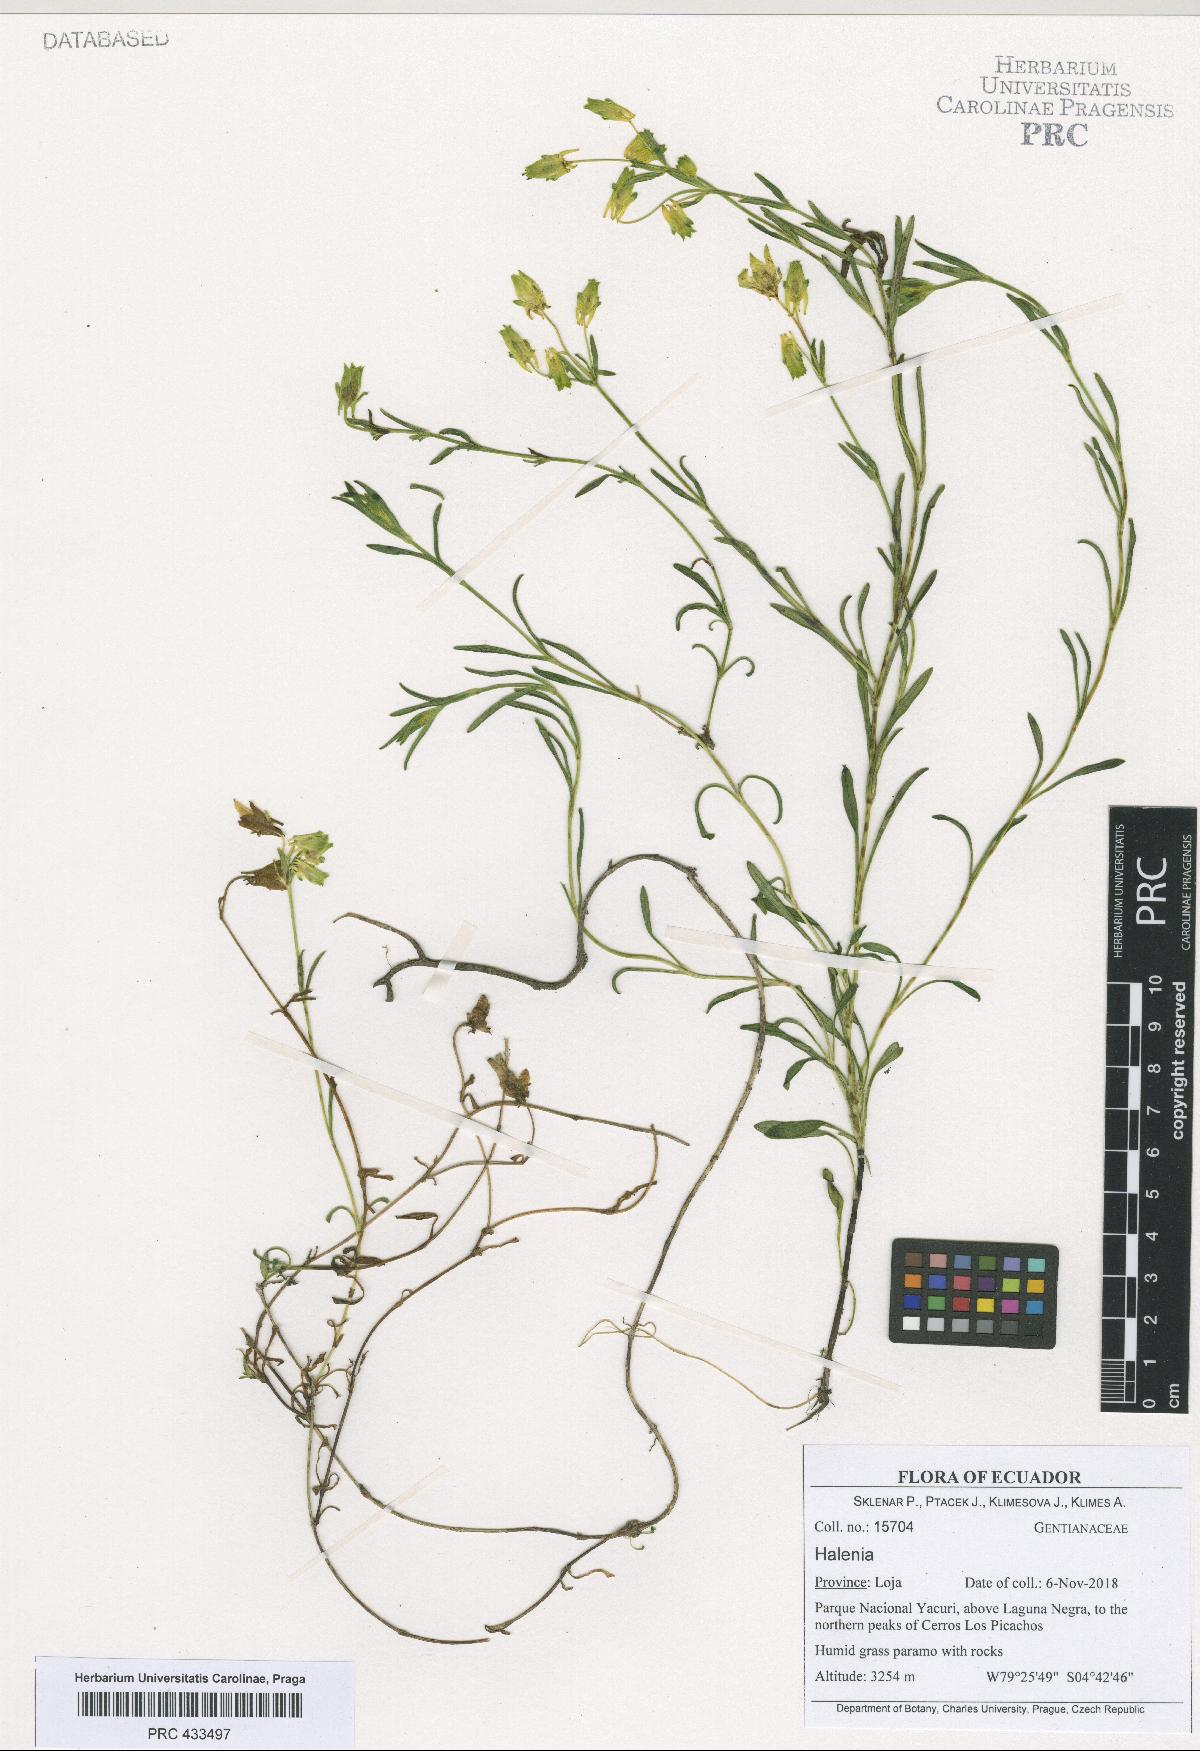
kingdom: Plantae
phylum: Tracheophyta
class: Magnoliopsida
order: Gentianales
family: Gentianaceae
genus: Halenia
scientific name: Halenia
